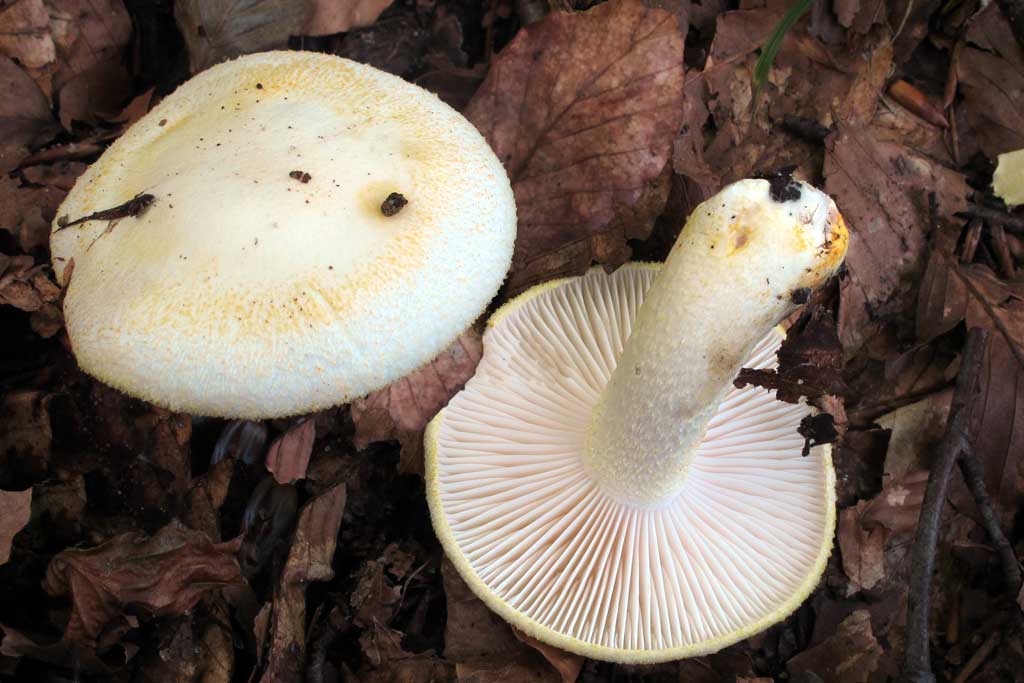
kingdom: Fungi
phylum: Basidiomycota
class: Agaricomycetes
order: Agaricales
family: Hygrophoraceae
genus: Hygrophorus
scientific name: Hygrophorus chrysodon
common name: gulfnugget sneglehat
